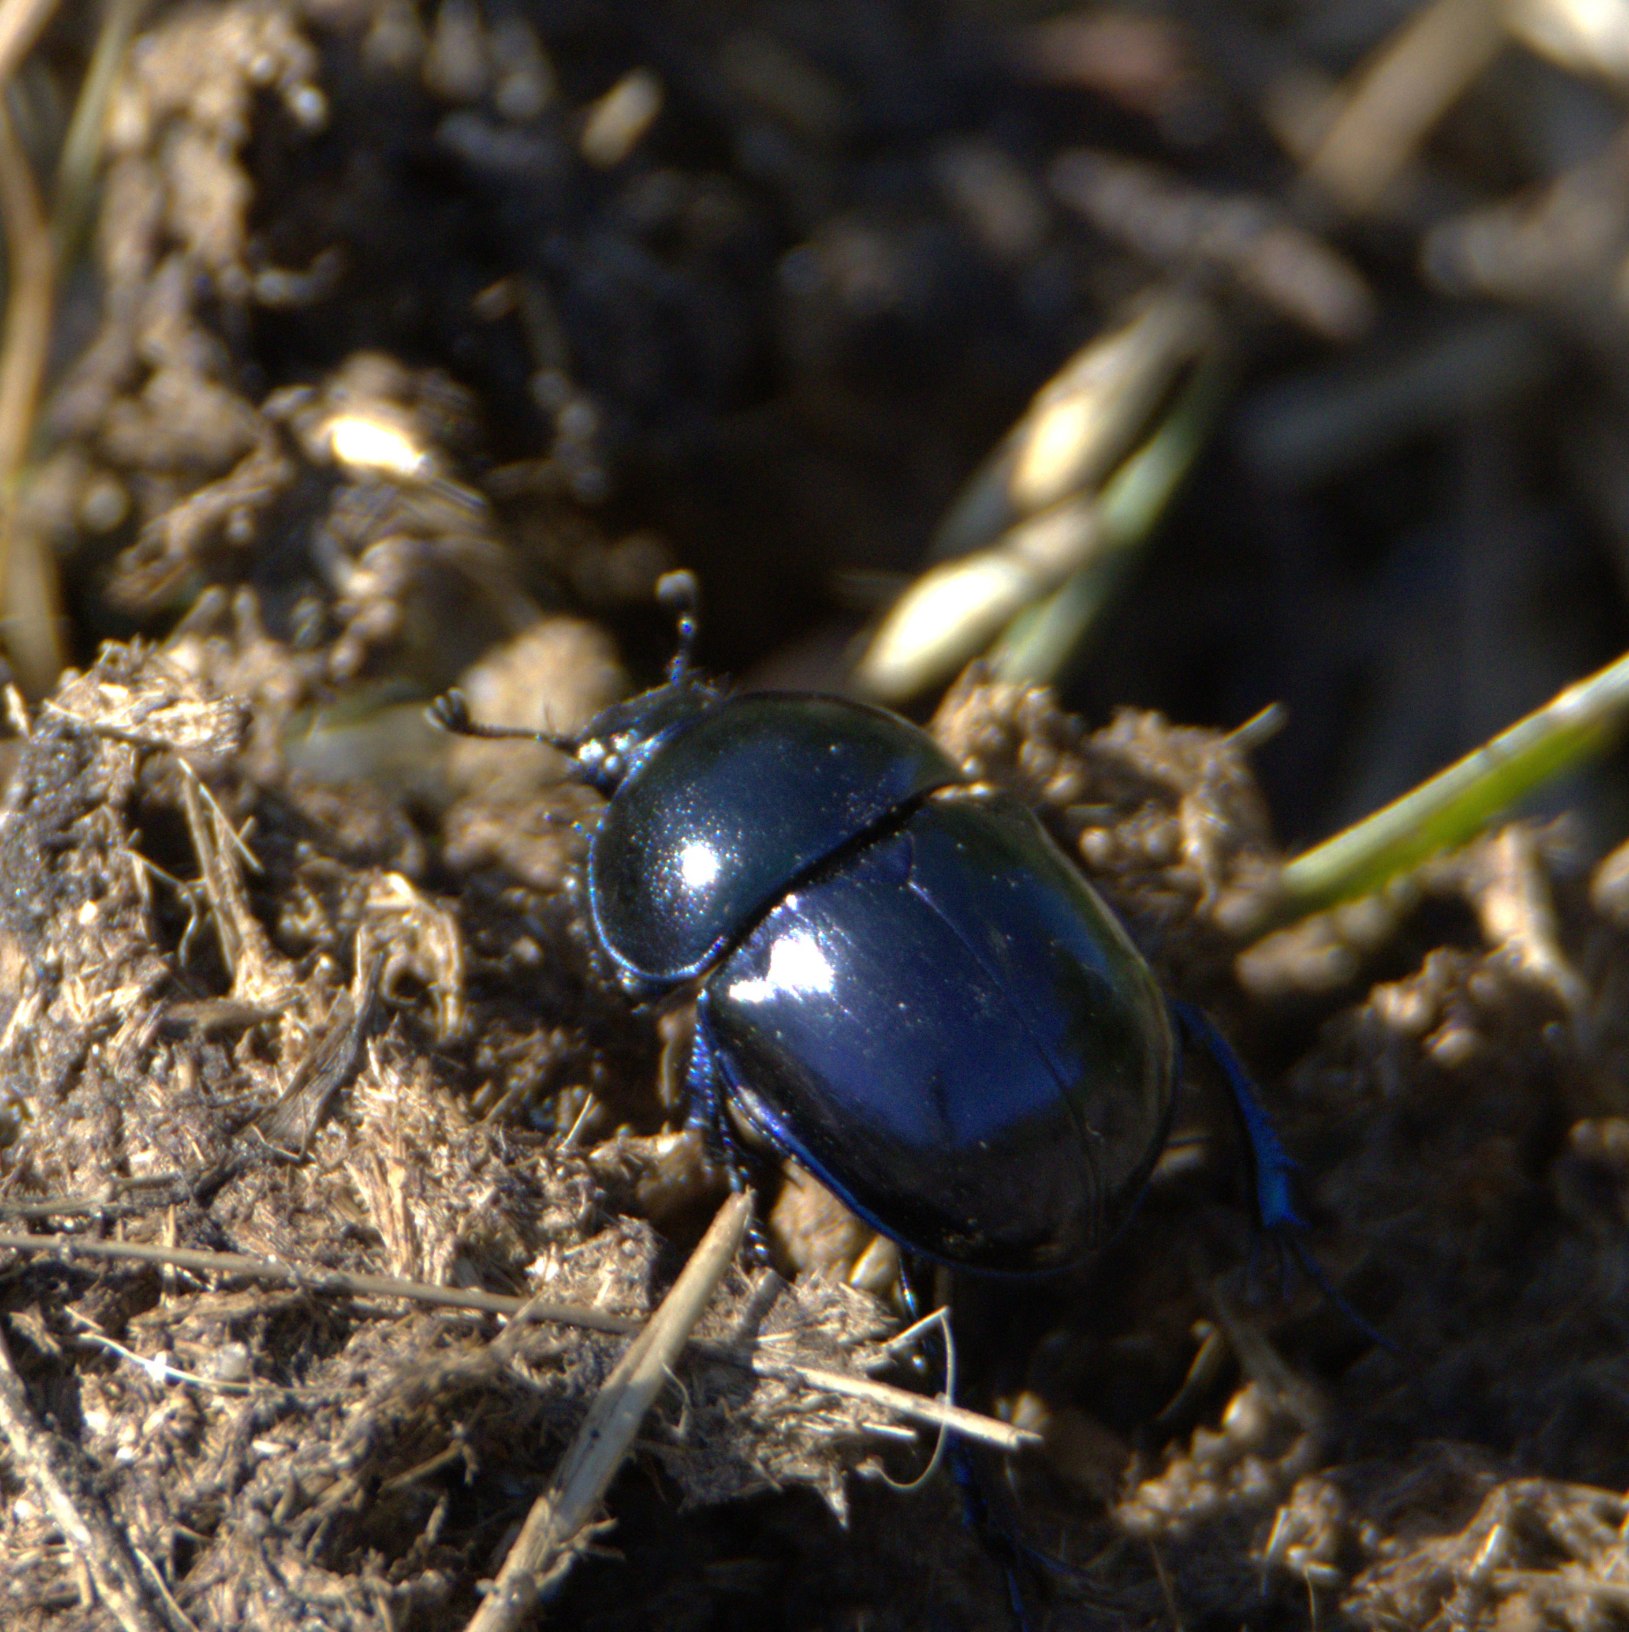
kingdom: Animalia
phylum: Arthropoda
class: Insecta
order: Coleoptera
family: Geotrupidae
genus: Trypocopris
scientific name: Trypocopris vernalis
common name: Glat skarnbasse
